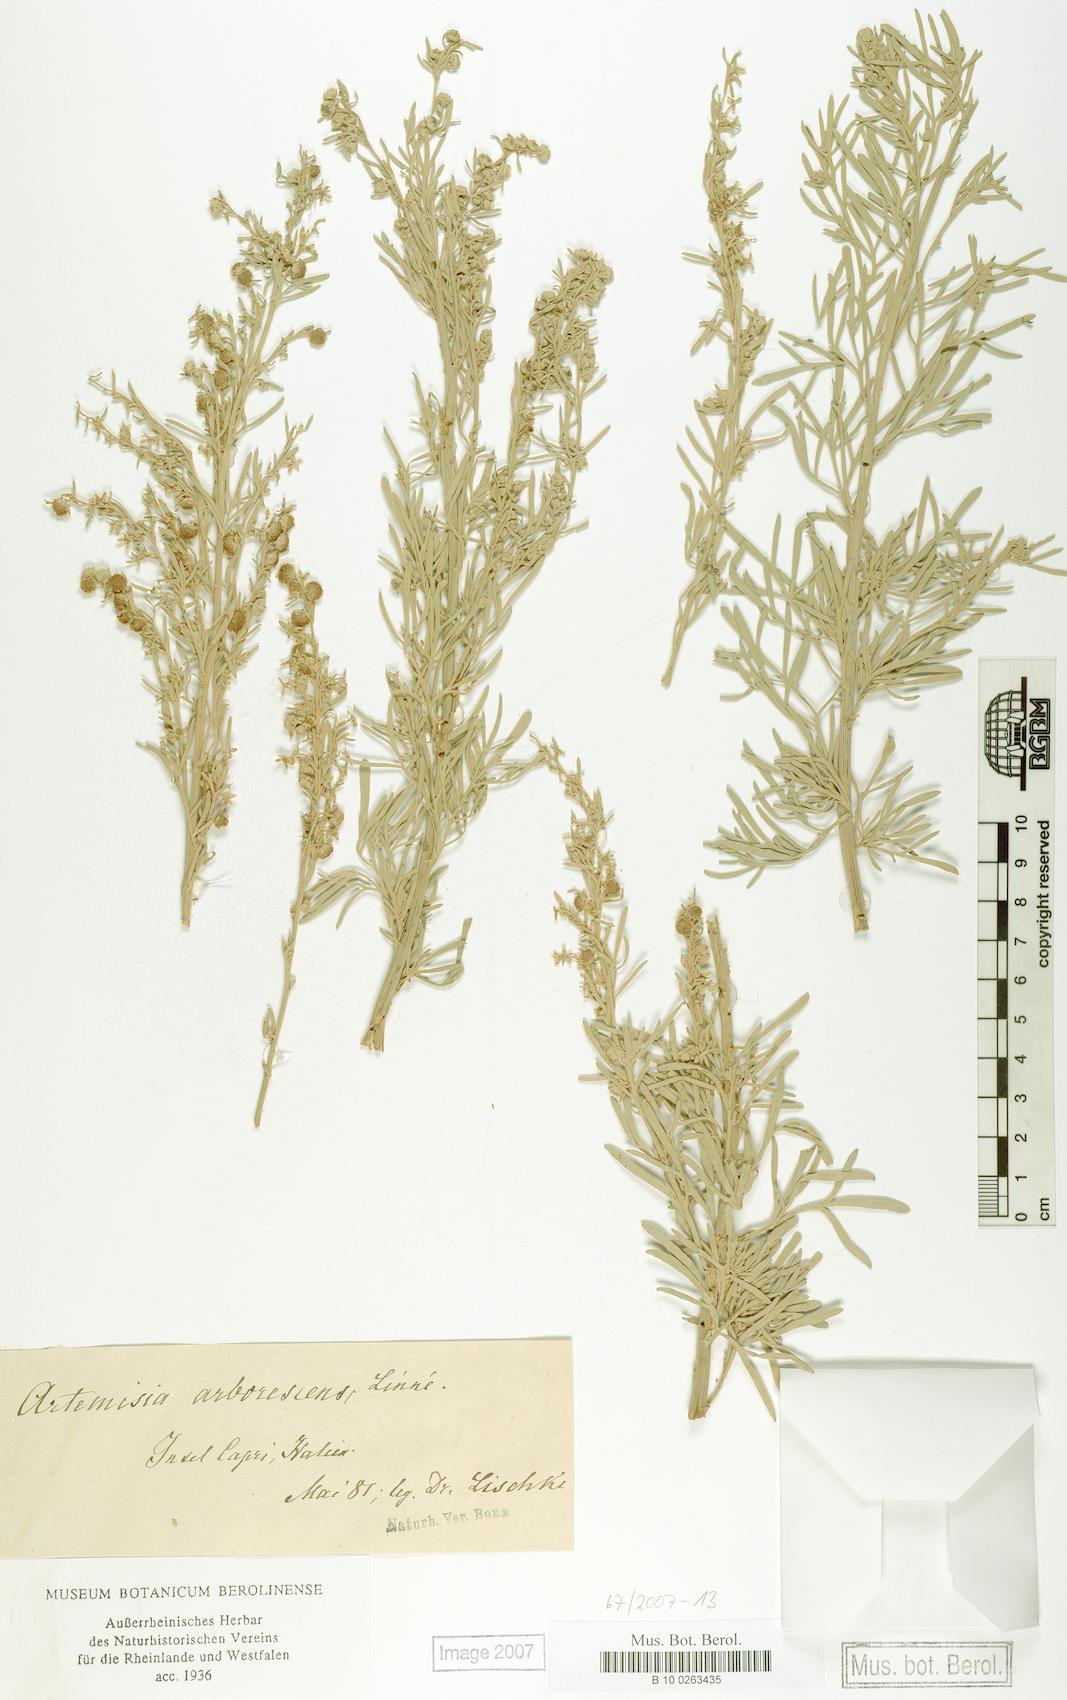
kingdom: Plantae
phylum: Tracheophyta
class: Magnoliopsida
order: Asterales
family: Asteraceae
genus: Artemisia
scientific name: Artemisia arborescens
